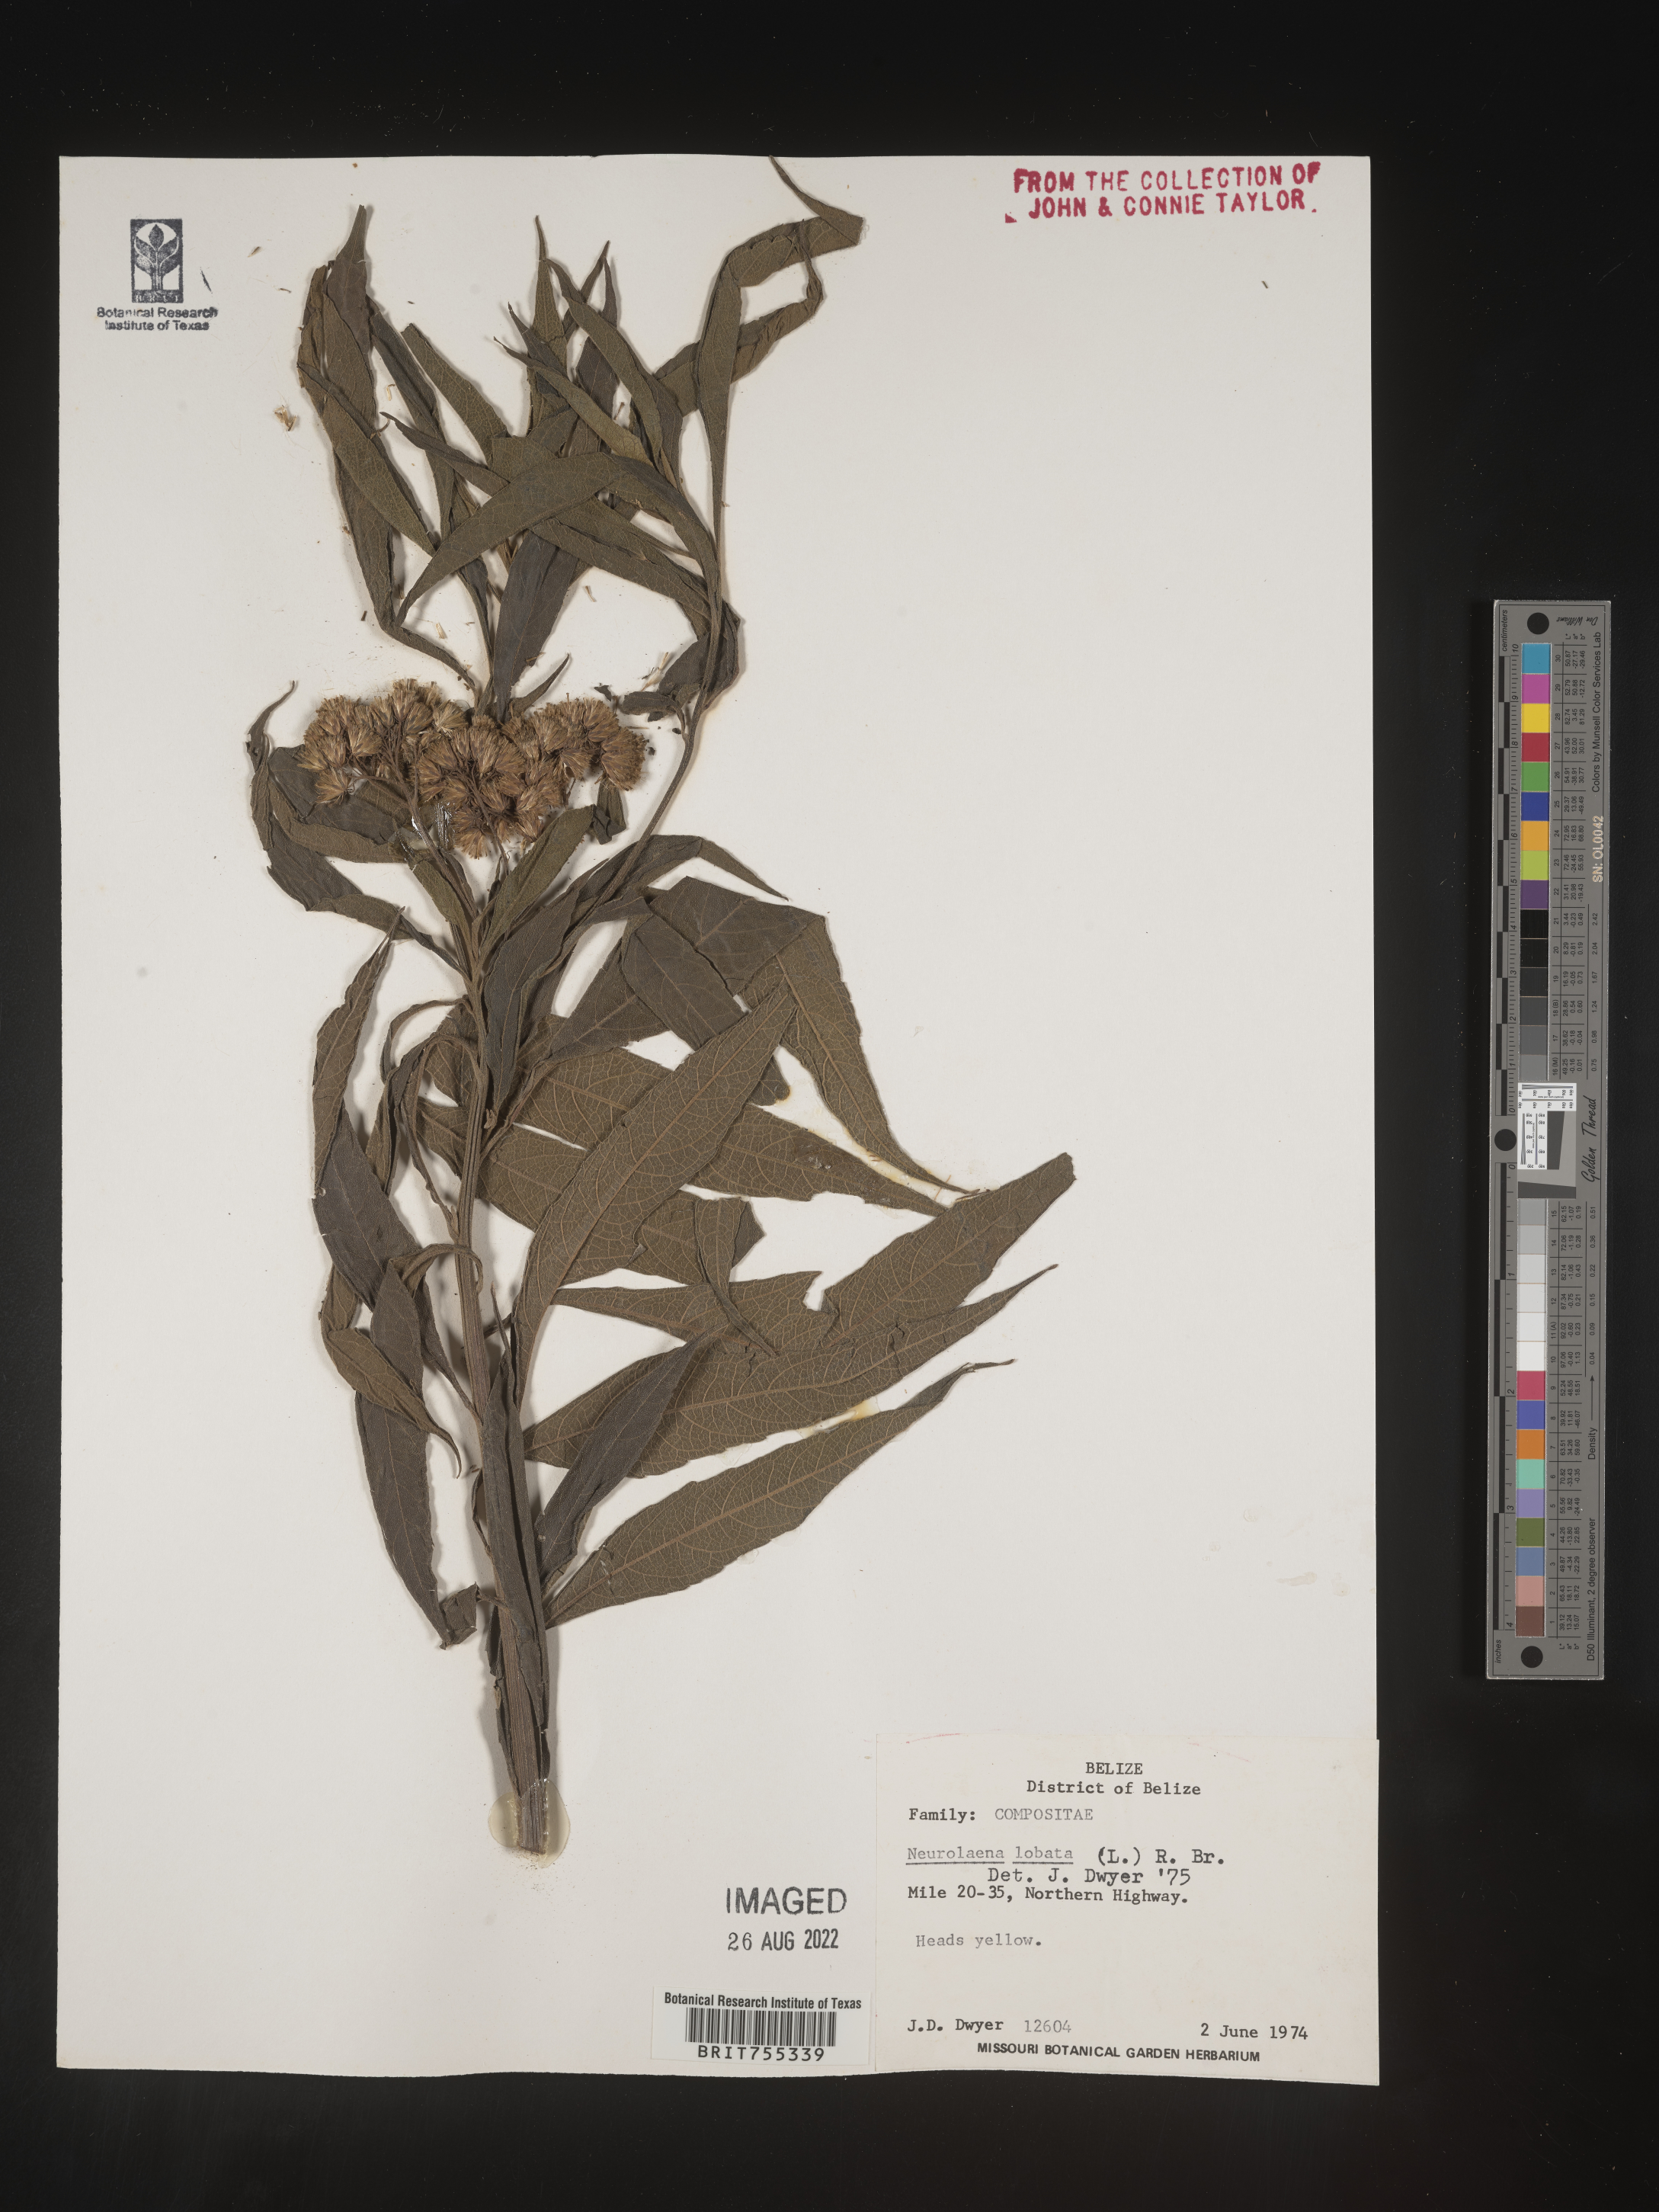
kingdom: Plantae
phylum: Tracheophyta
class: Magnoliopsida
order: Asterales
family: Asteraceae
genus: Neurolaena
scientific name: Neurolaena
